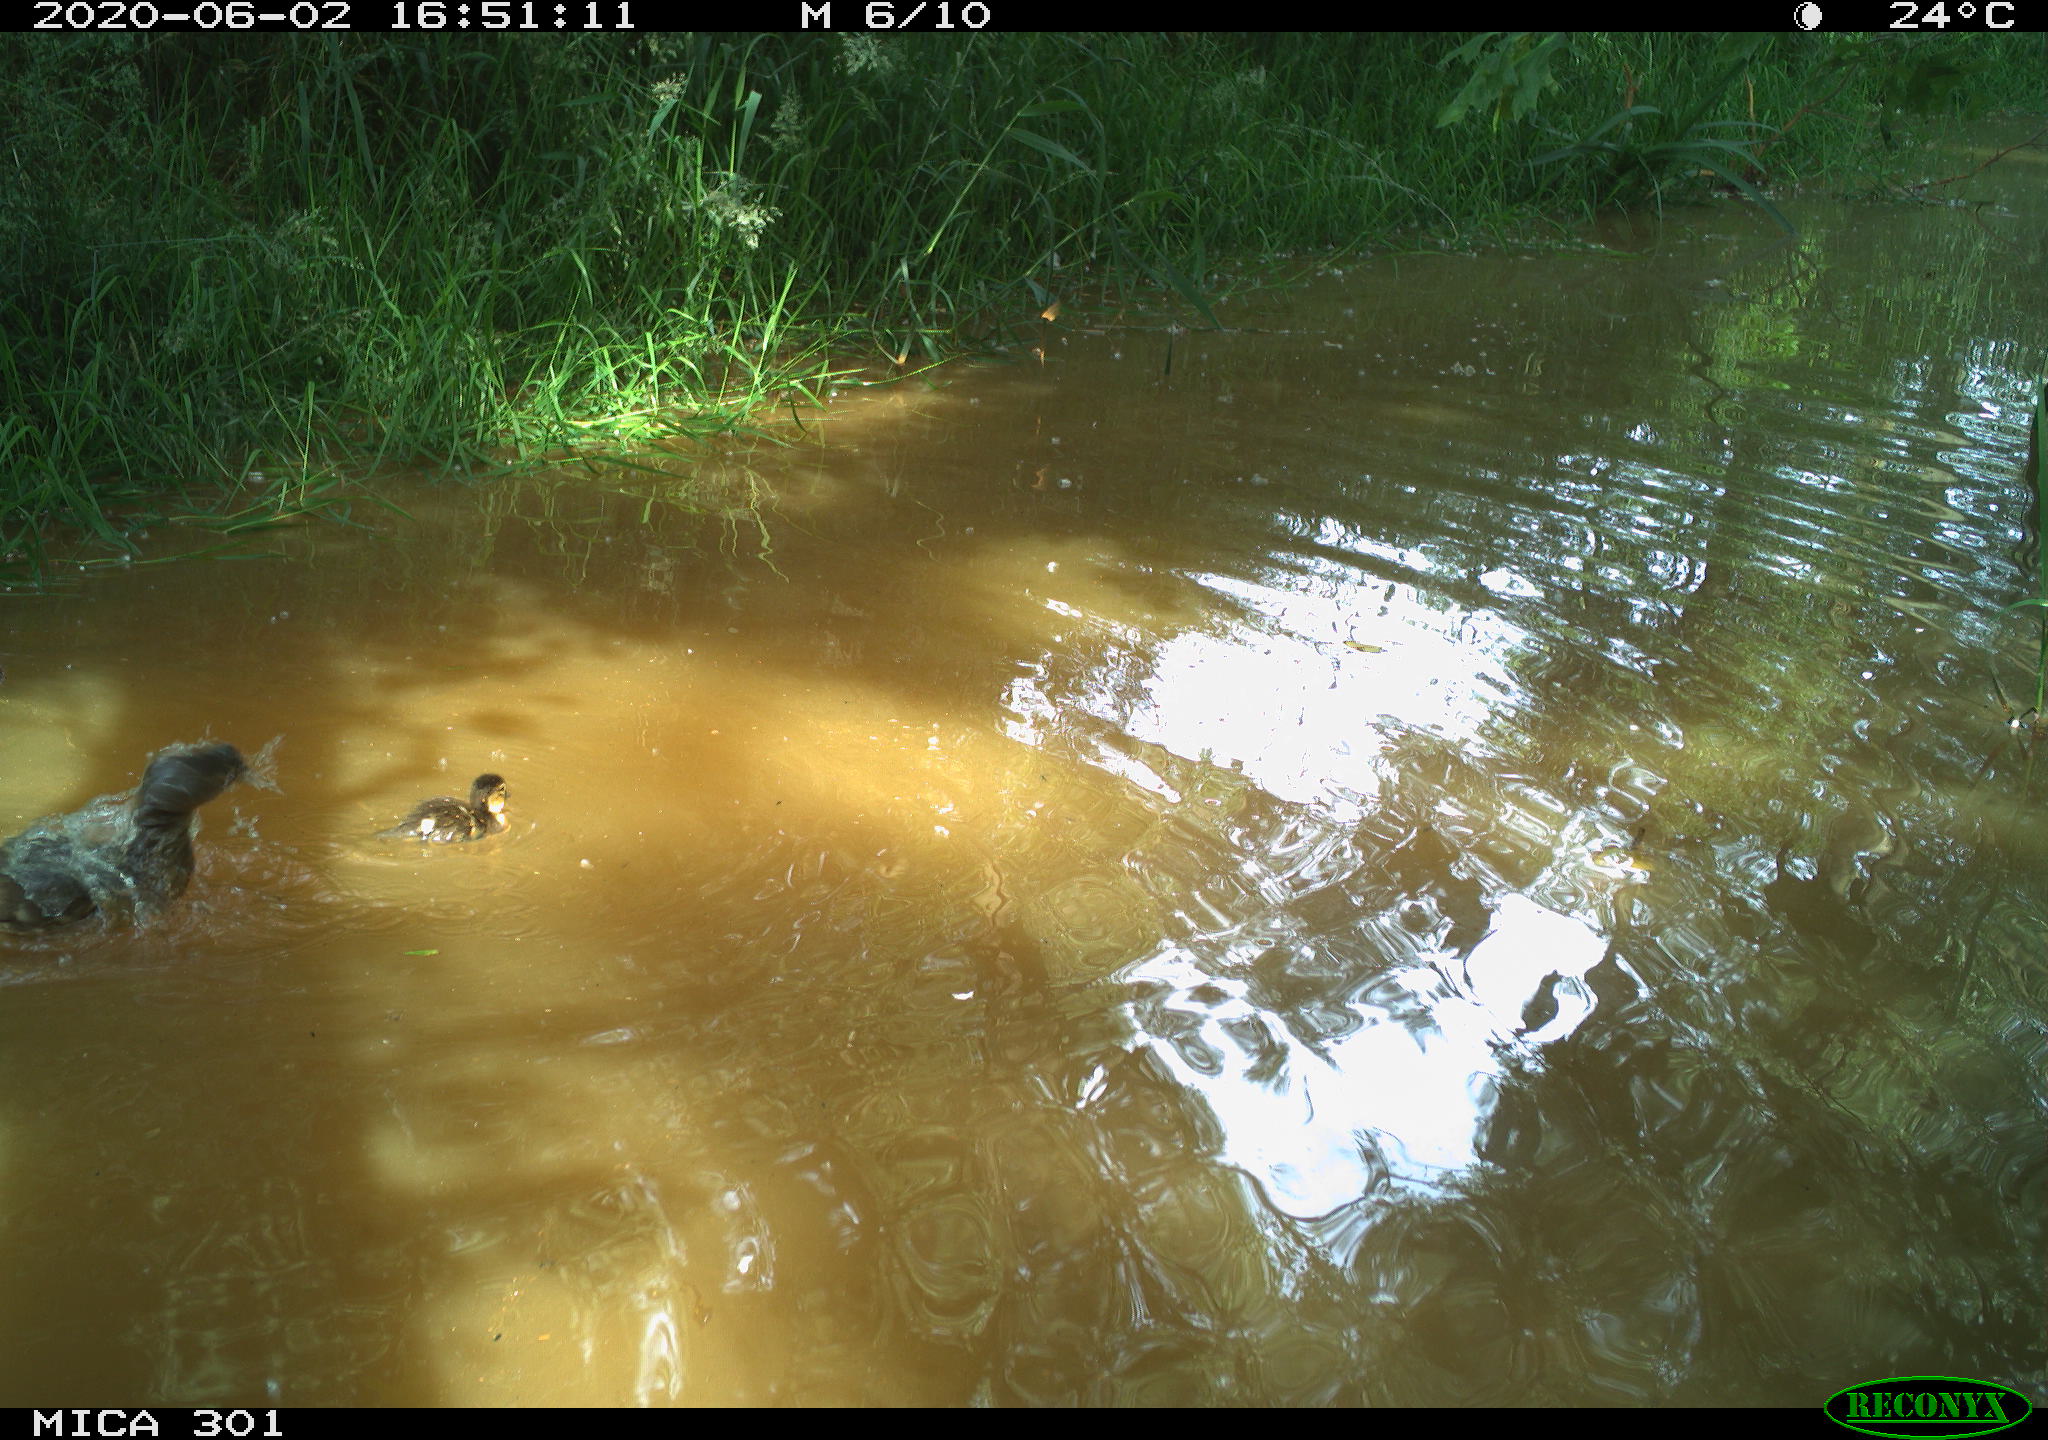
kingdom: Animalia
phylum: Chordata
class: Aves
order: Anseriformes
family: Anatidae
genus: Aix
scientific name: Aix galericulata
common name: Mandarin duck
